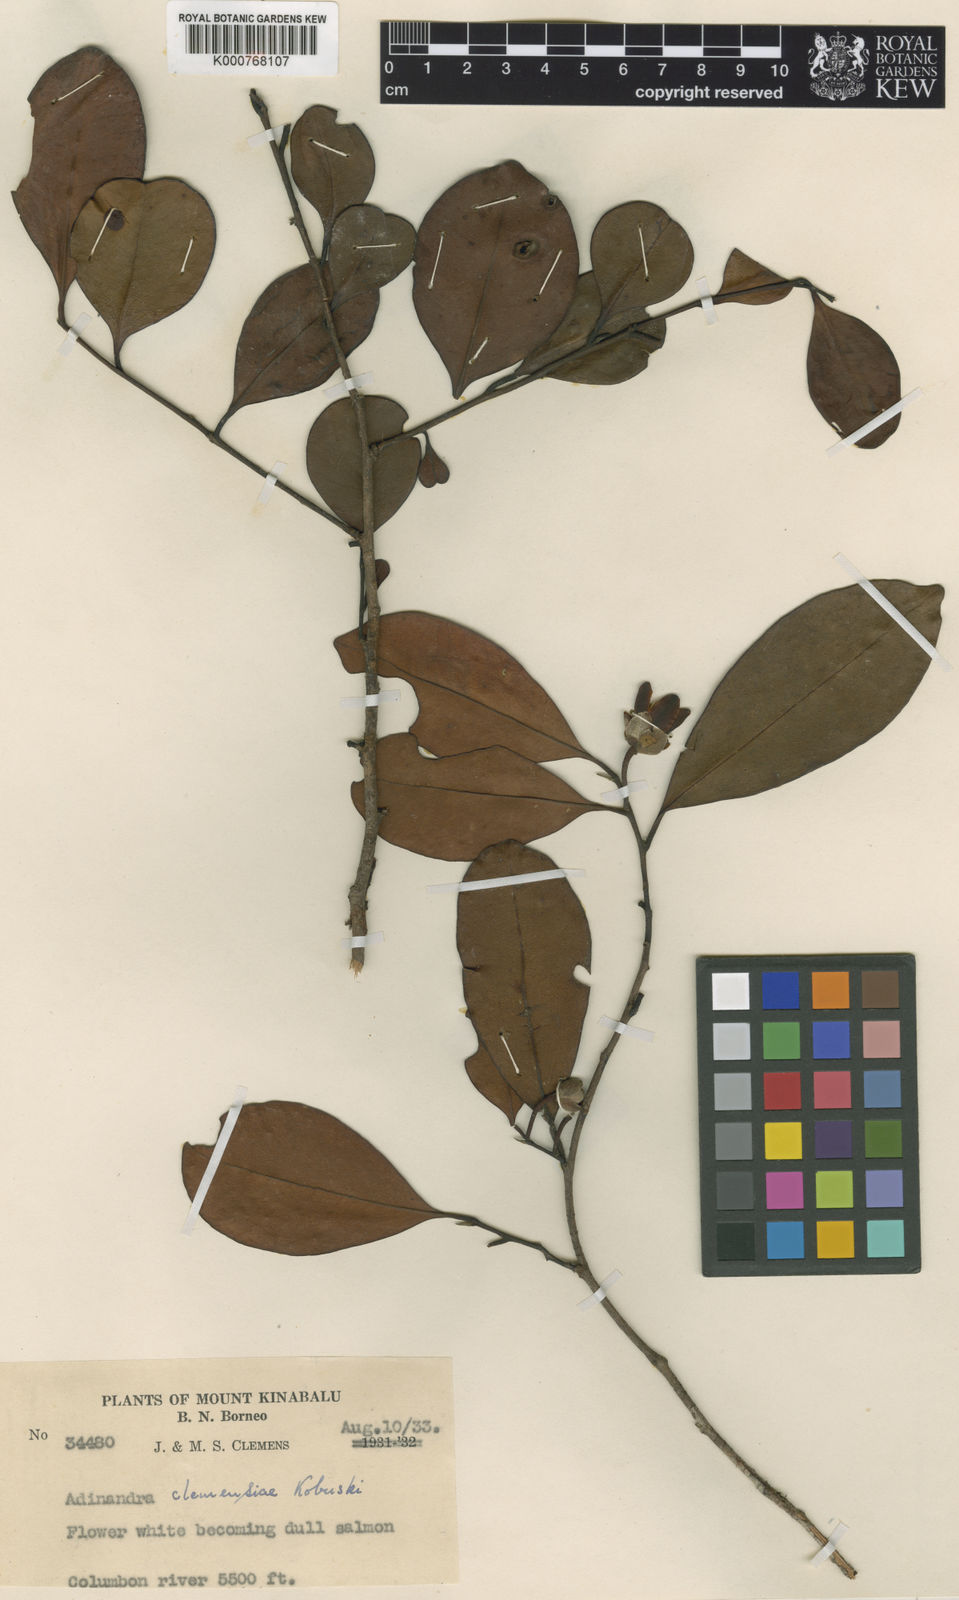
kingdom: Plantae
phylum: Tracheophyta
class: Magnoliopsida
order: Ericales
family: Pentaphylacaceae
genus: Adinandra
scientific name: Adinandra clemensiae
